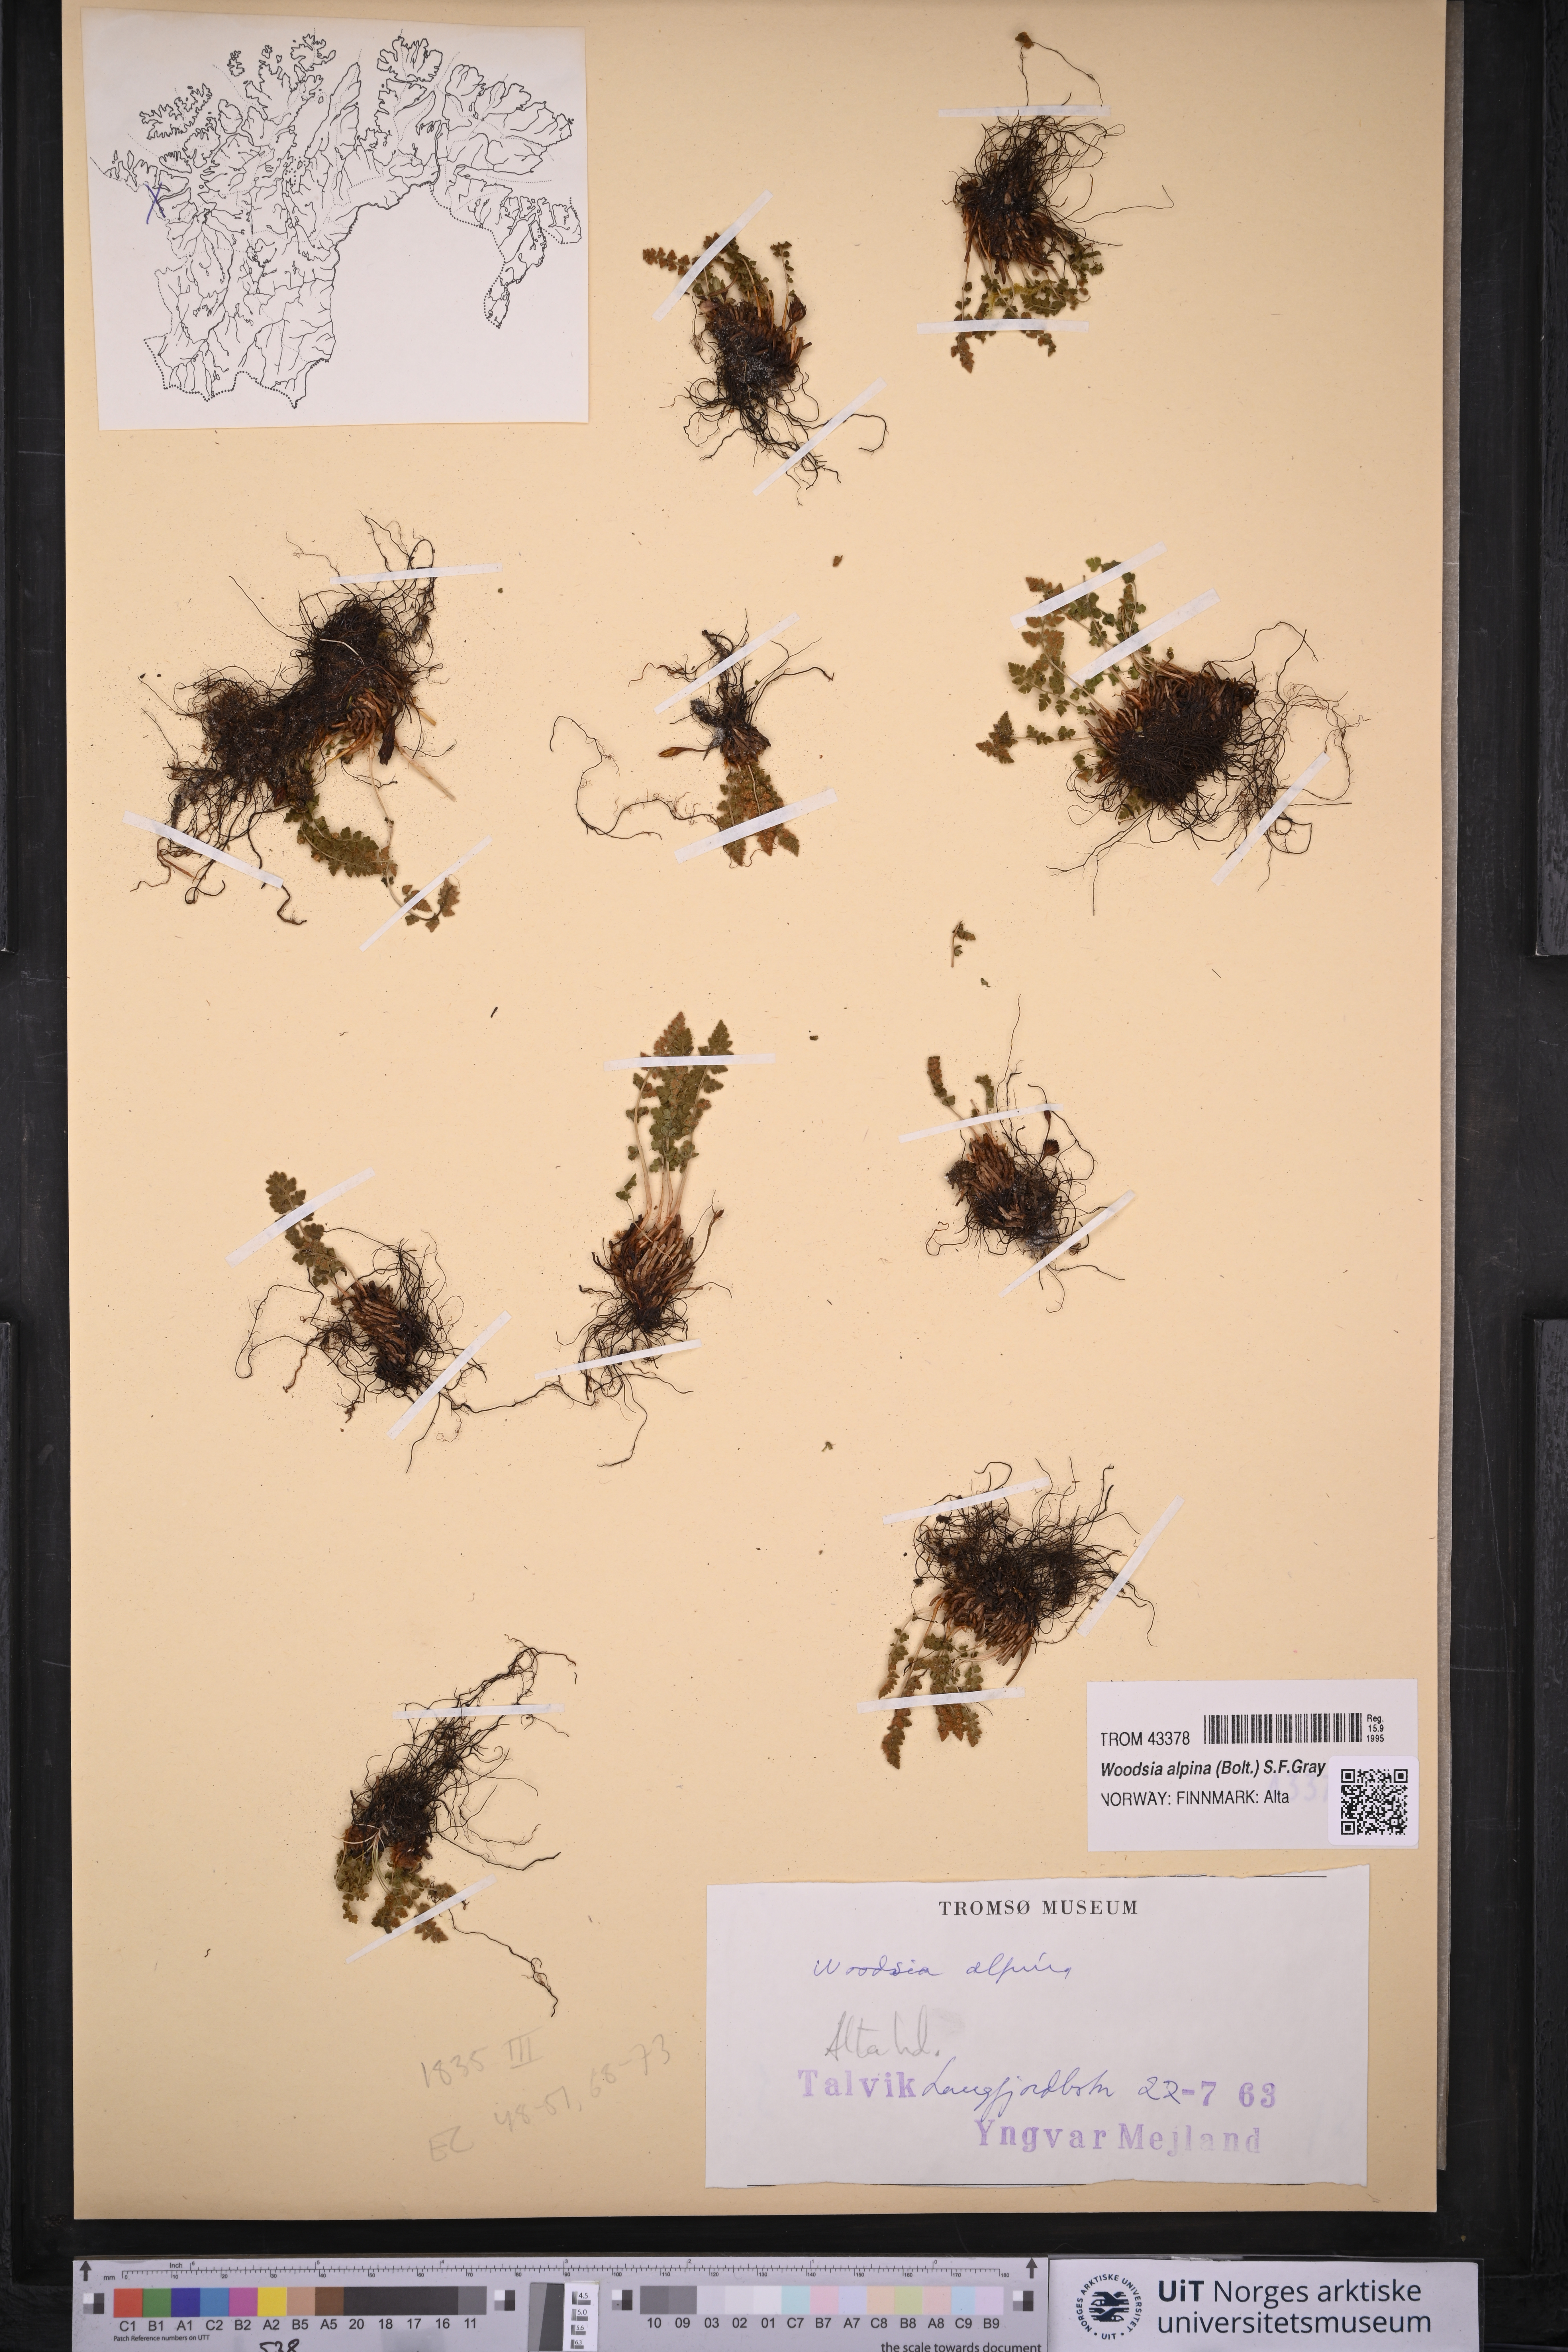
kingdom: Plantae
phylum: Tracheophyta
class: Polypodiopsida
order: Polypodiales
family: Woodsiaceae
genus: Woodsia
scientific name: Woodsia alpina
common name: Alpine woodsia
